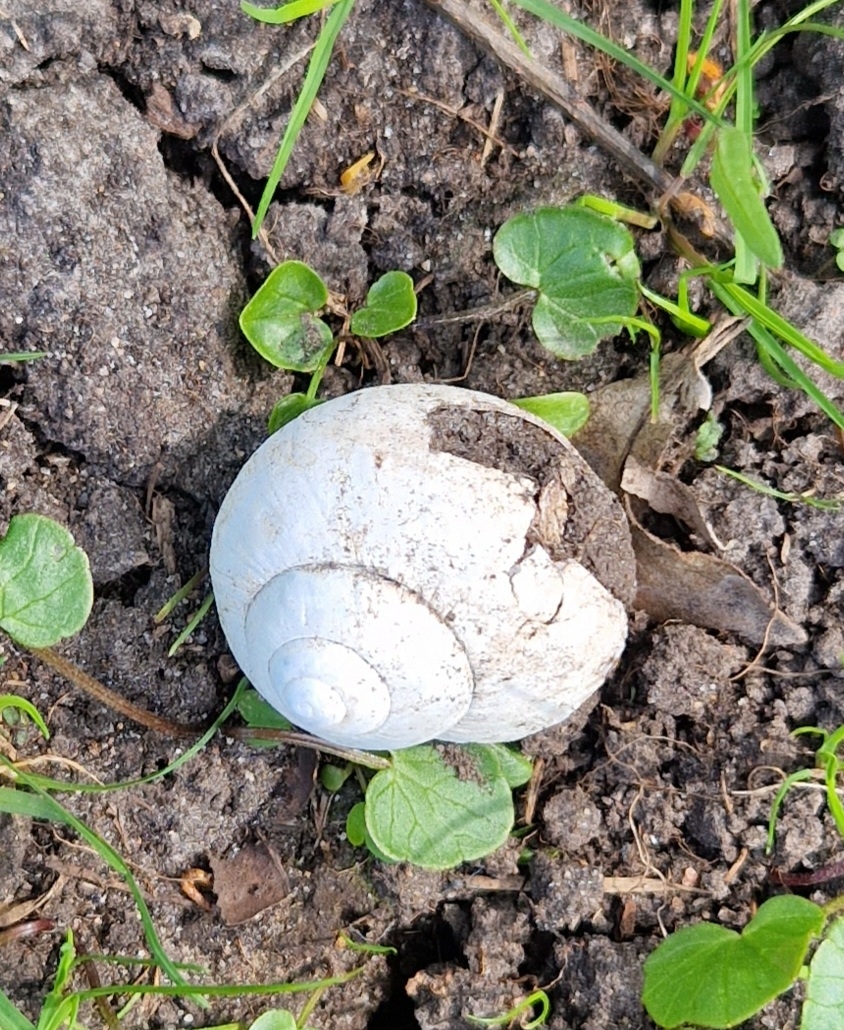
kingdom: Animalia
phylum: Mollusca
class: Gastropoda
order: Stylommatophora
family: Helicidae
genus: Helix
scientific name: Helix pomatia
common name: Vinbjergsnegl
